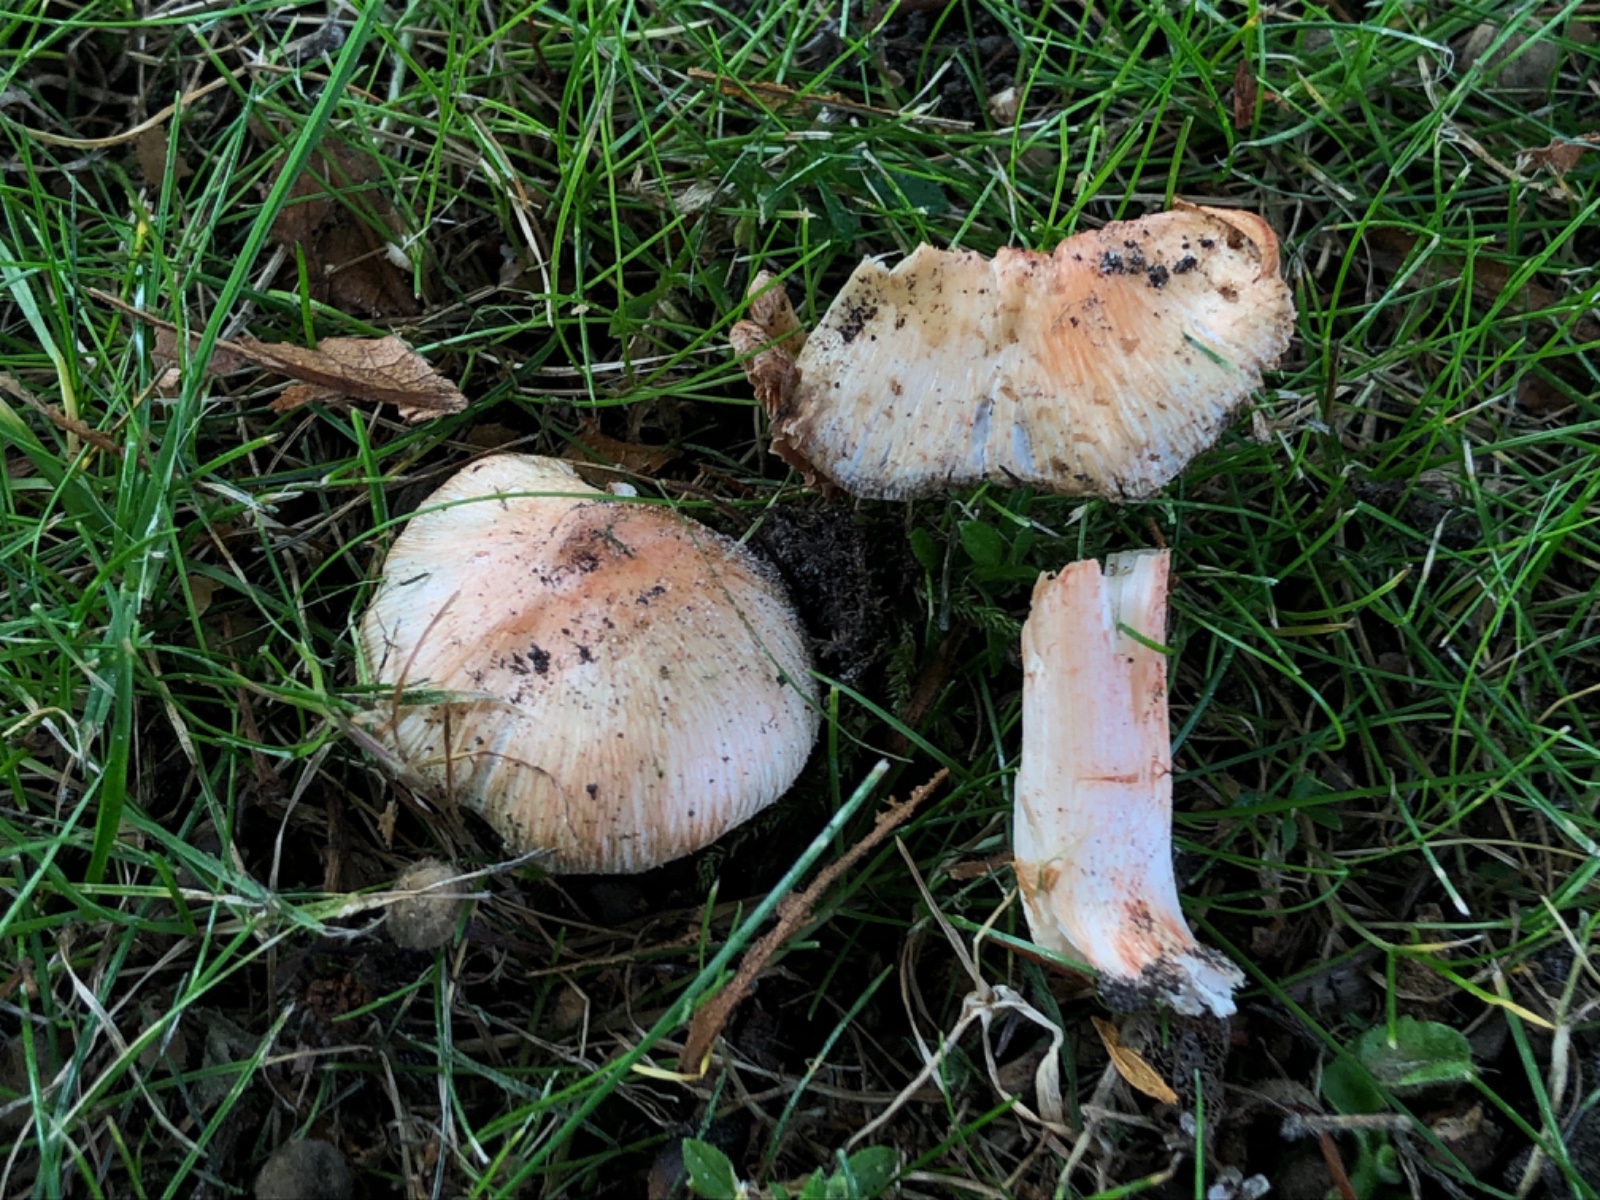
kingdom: Fungi
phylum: Basidiomycota
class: Agaricomycetes
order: Agaricales
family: Inocybaceae
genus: Inosperma
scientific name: Inosperma erubescens
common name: giftig trævlhat
